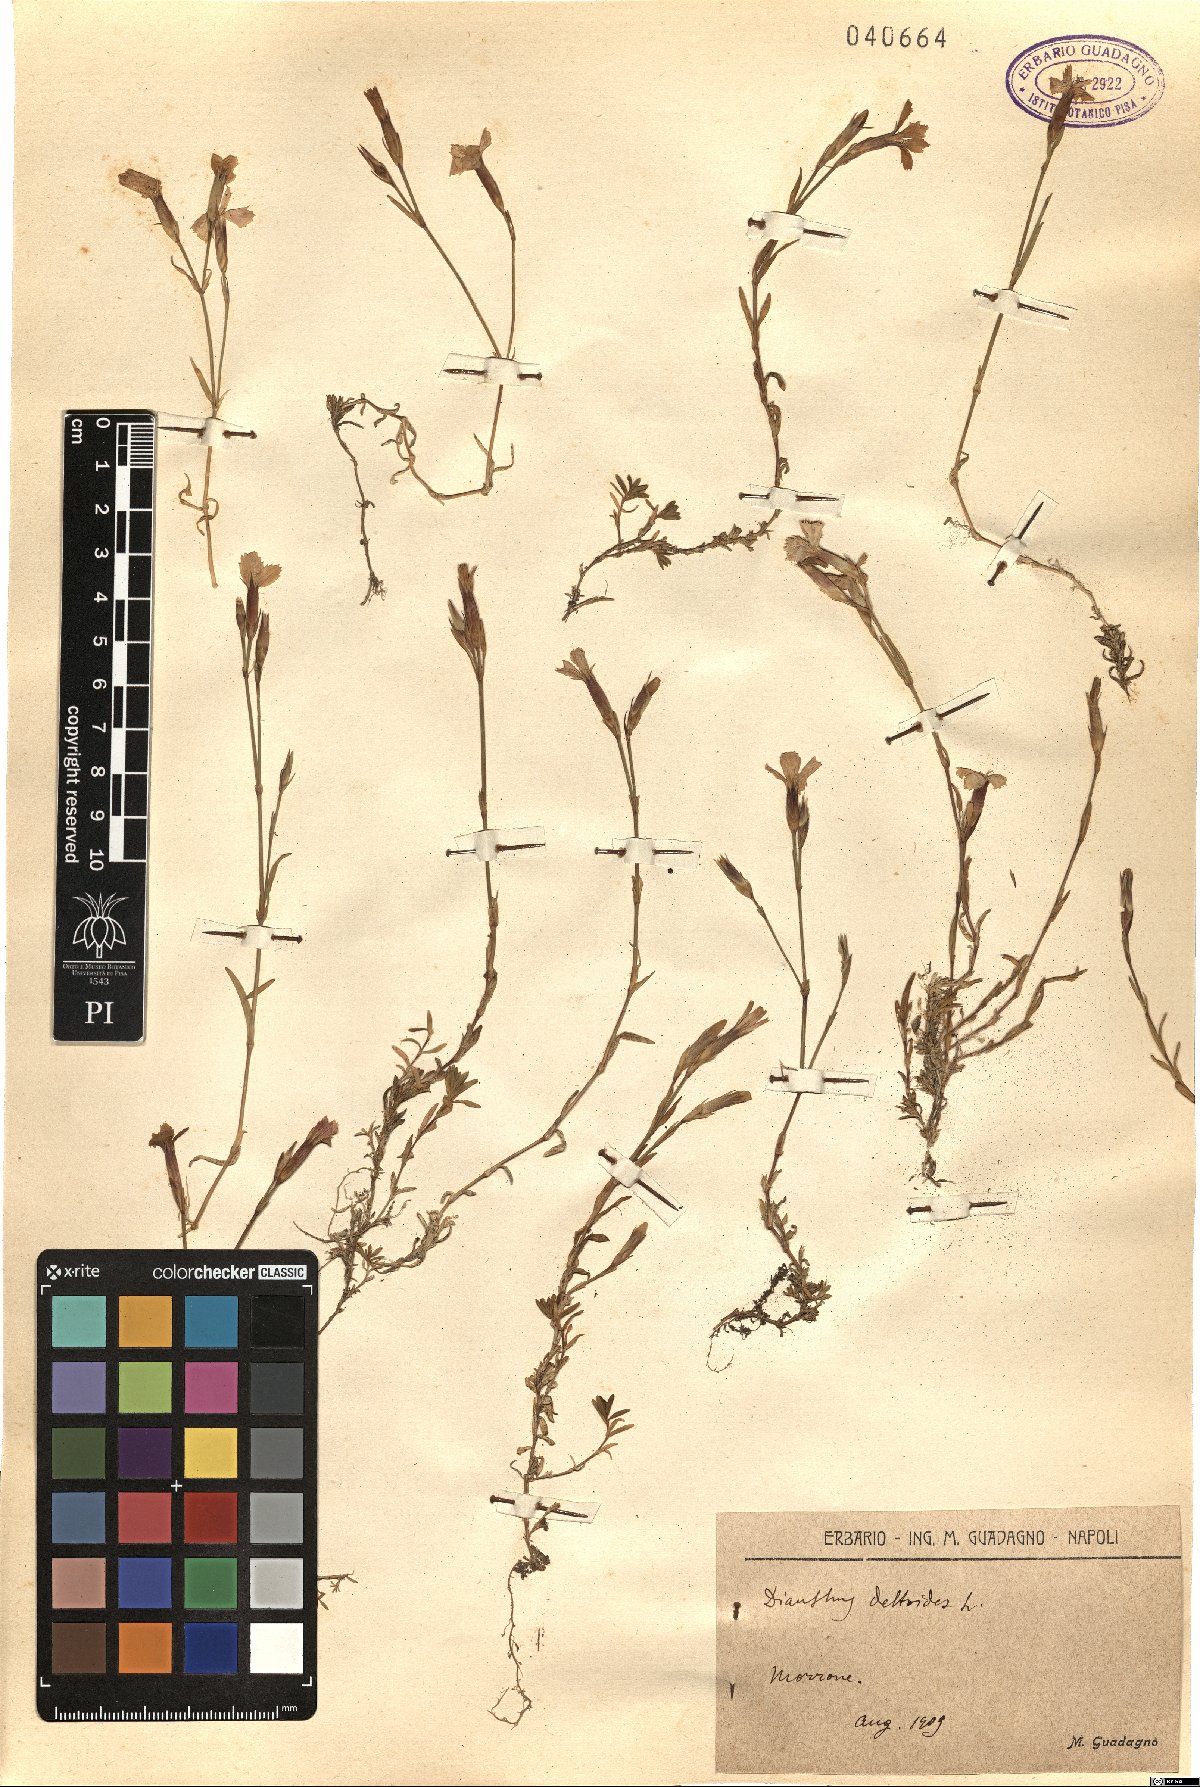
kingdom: Plantae
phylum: Tracheophyta
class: Magnoliopsida
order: Caryophyllales
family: Caryophyllaceae
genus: Dianthus
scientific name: Dianthus deltoides
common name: Maiden pink
